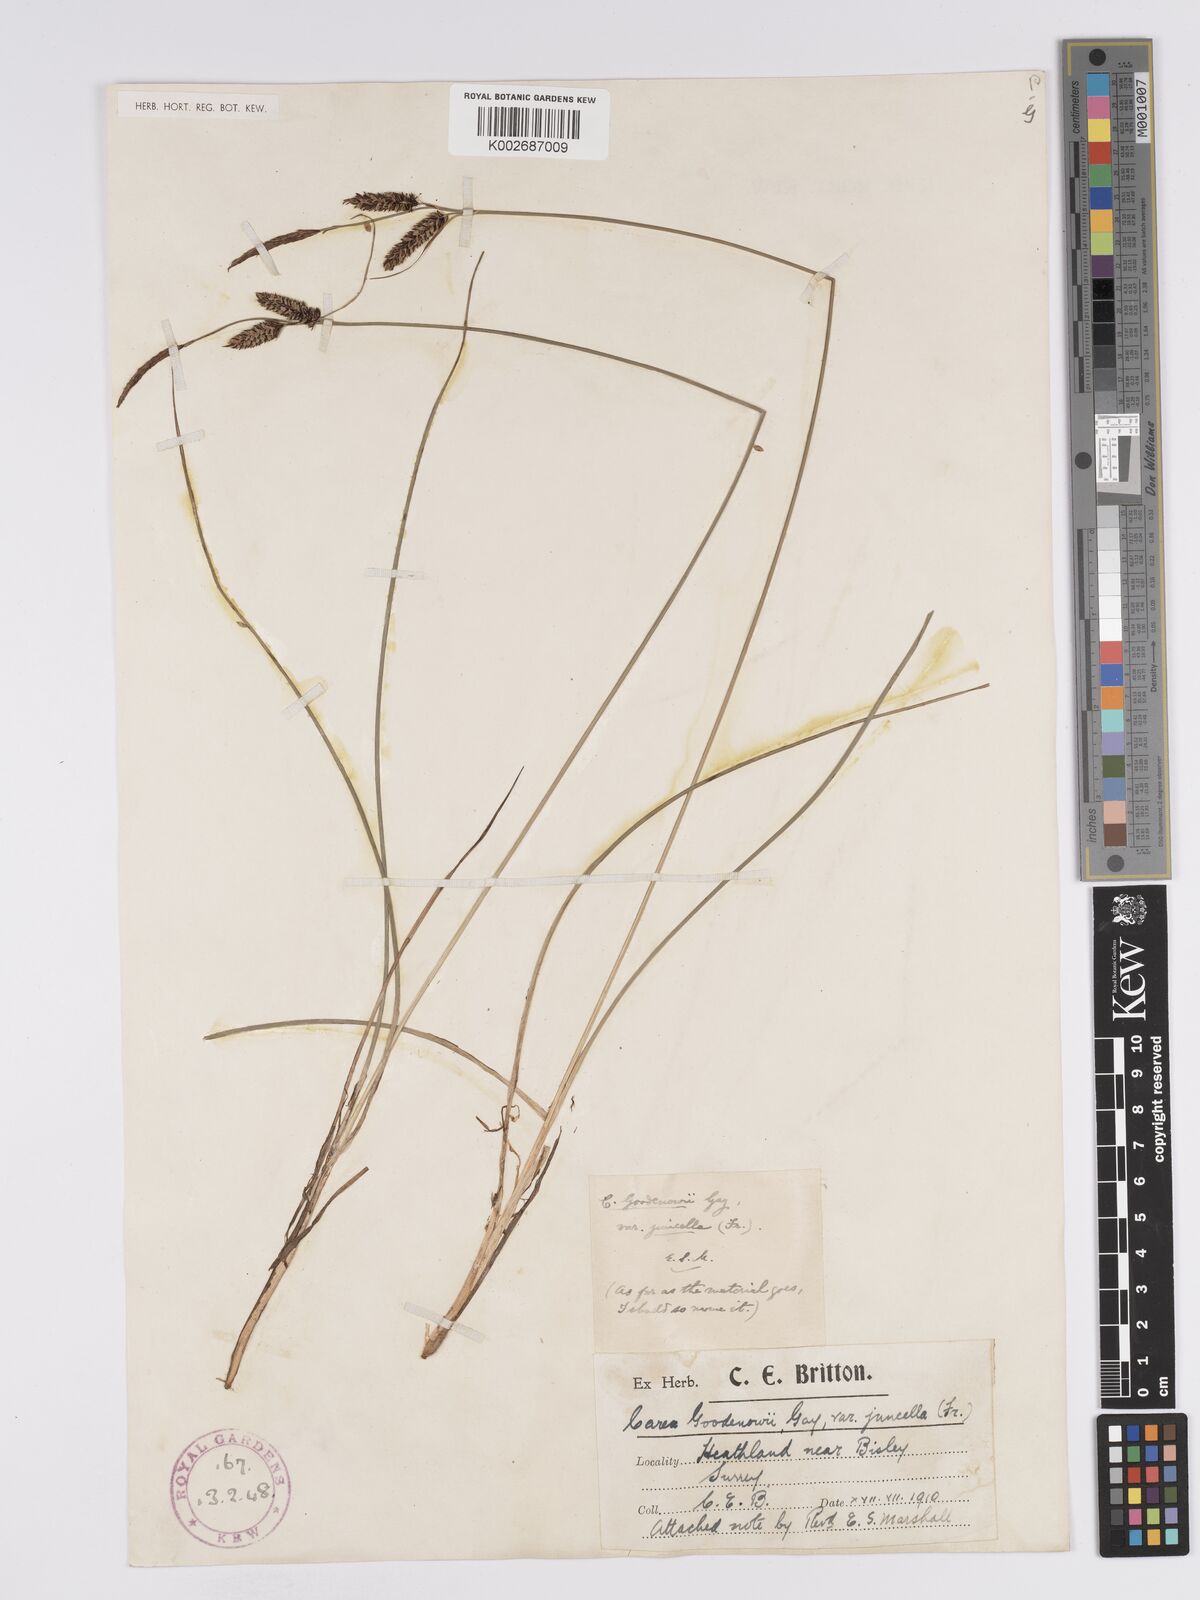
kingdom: Plantae
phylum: Tracheophyta
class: Liliopsida
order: Poales
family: Cyperaceae
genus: Carex
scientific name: Carex nigra
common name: Common sedge
